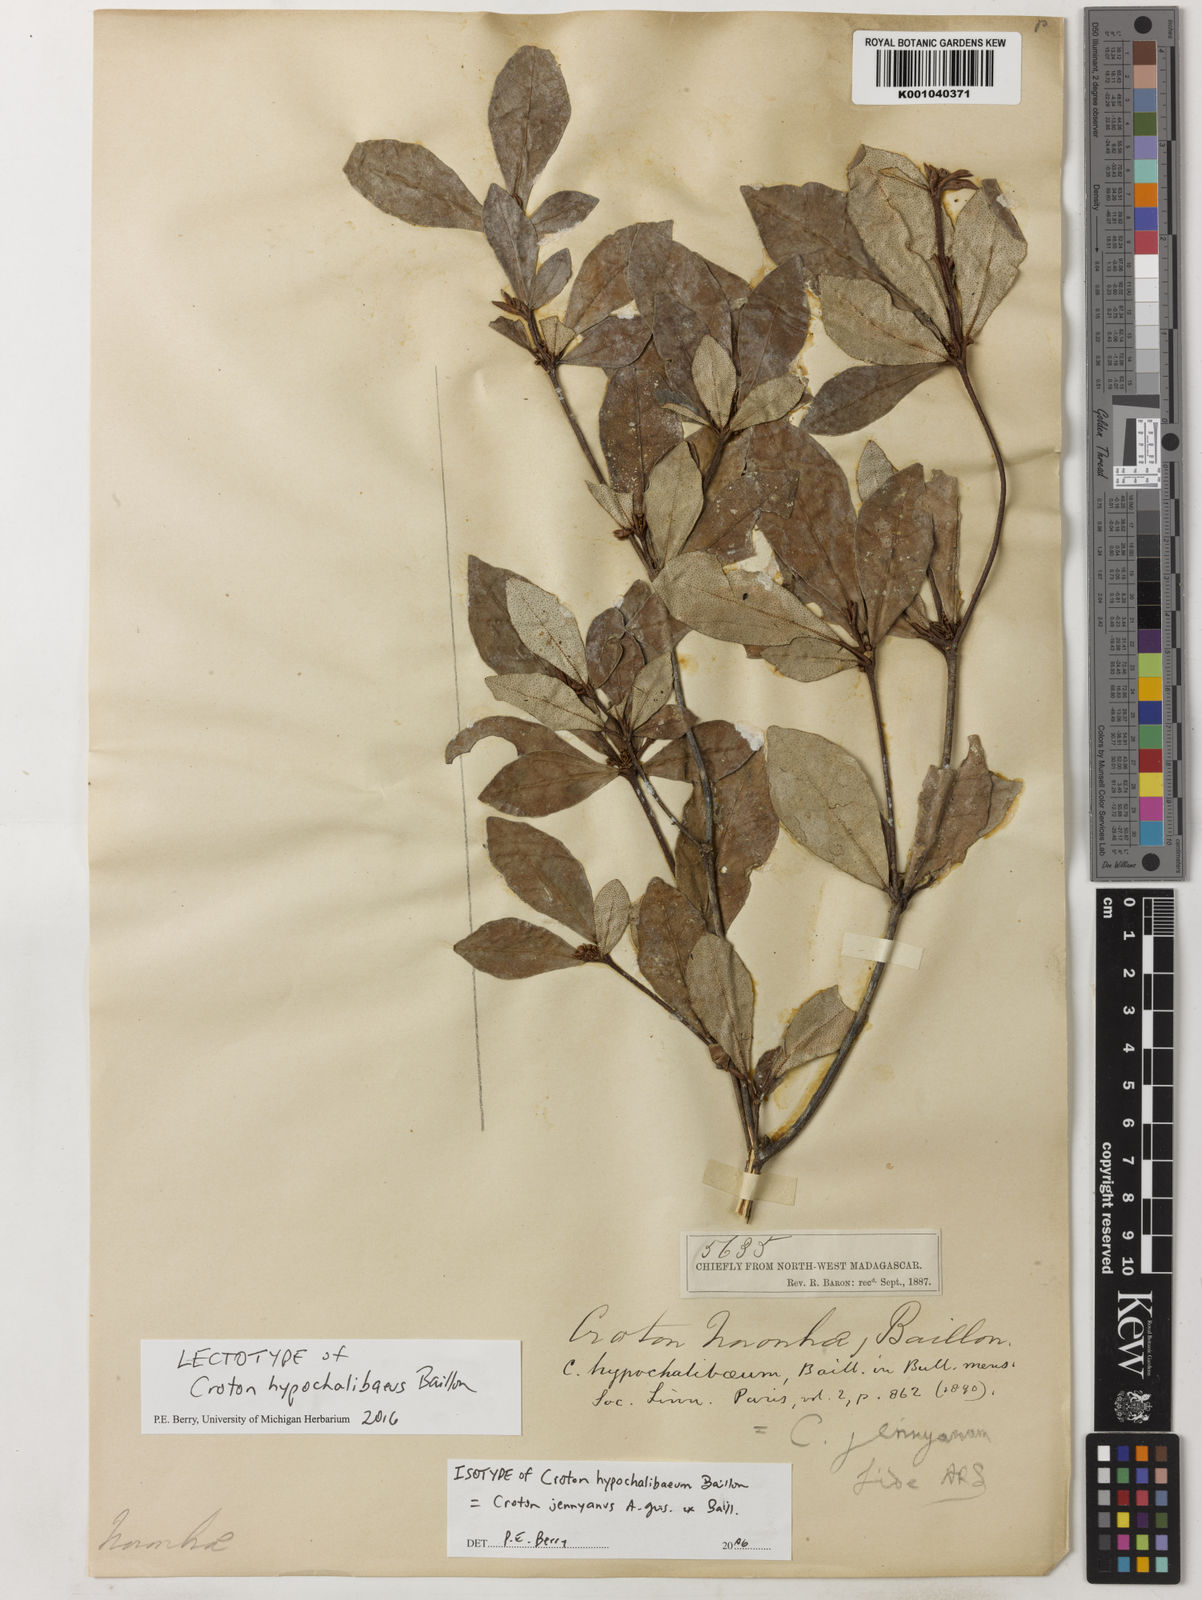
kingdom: Plantae
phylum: Tracheophyta
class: Magnoliopsida
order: Malpighiales
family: Euphorbiaceae
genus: Croton
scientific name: Croton jennyanus
